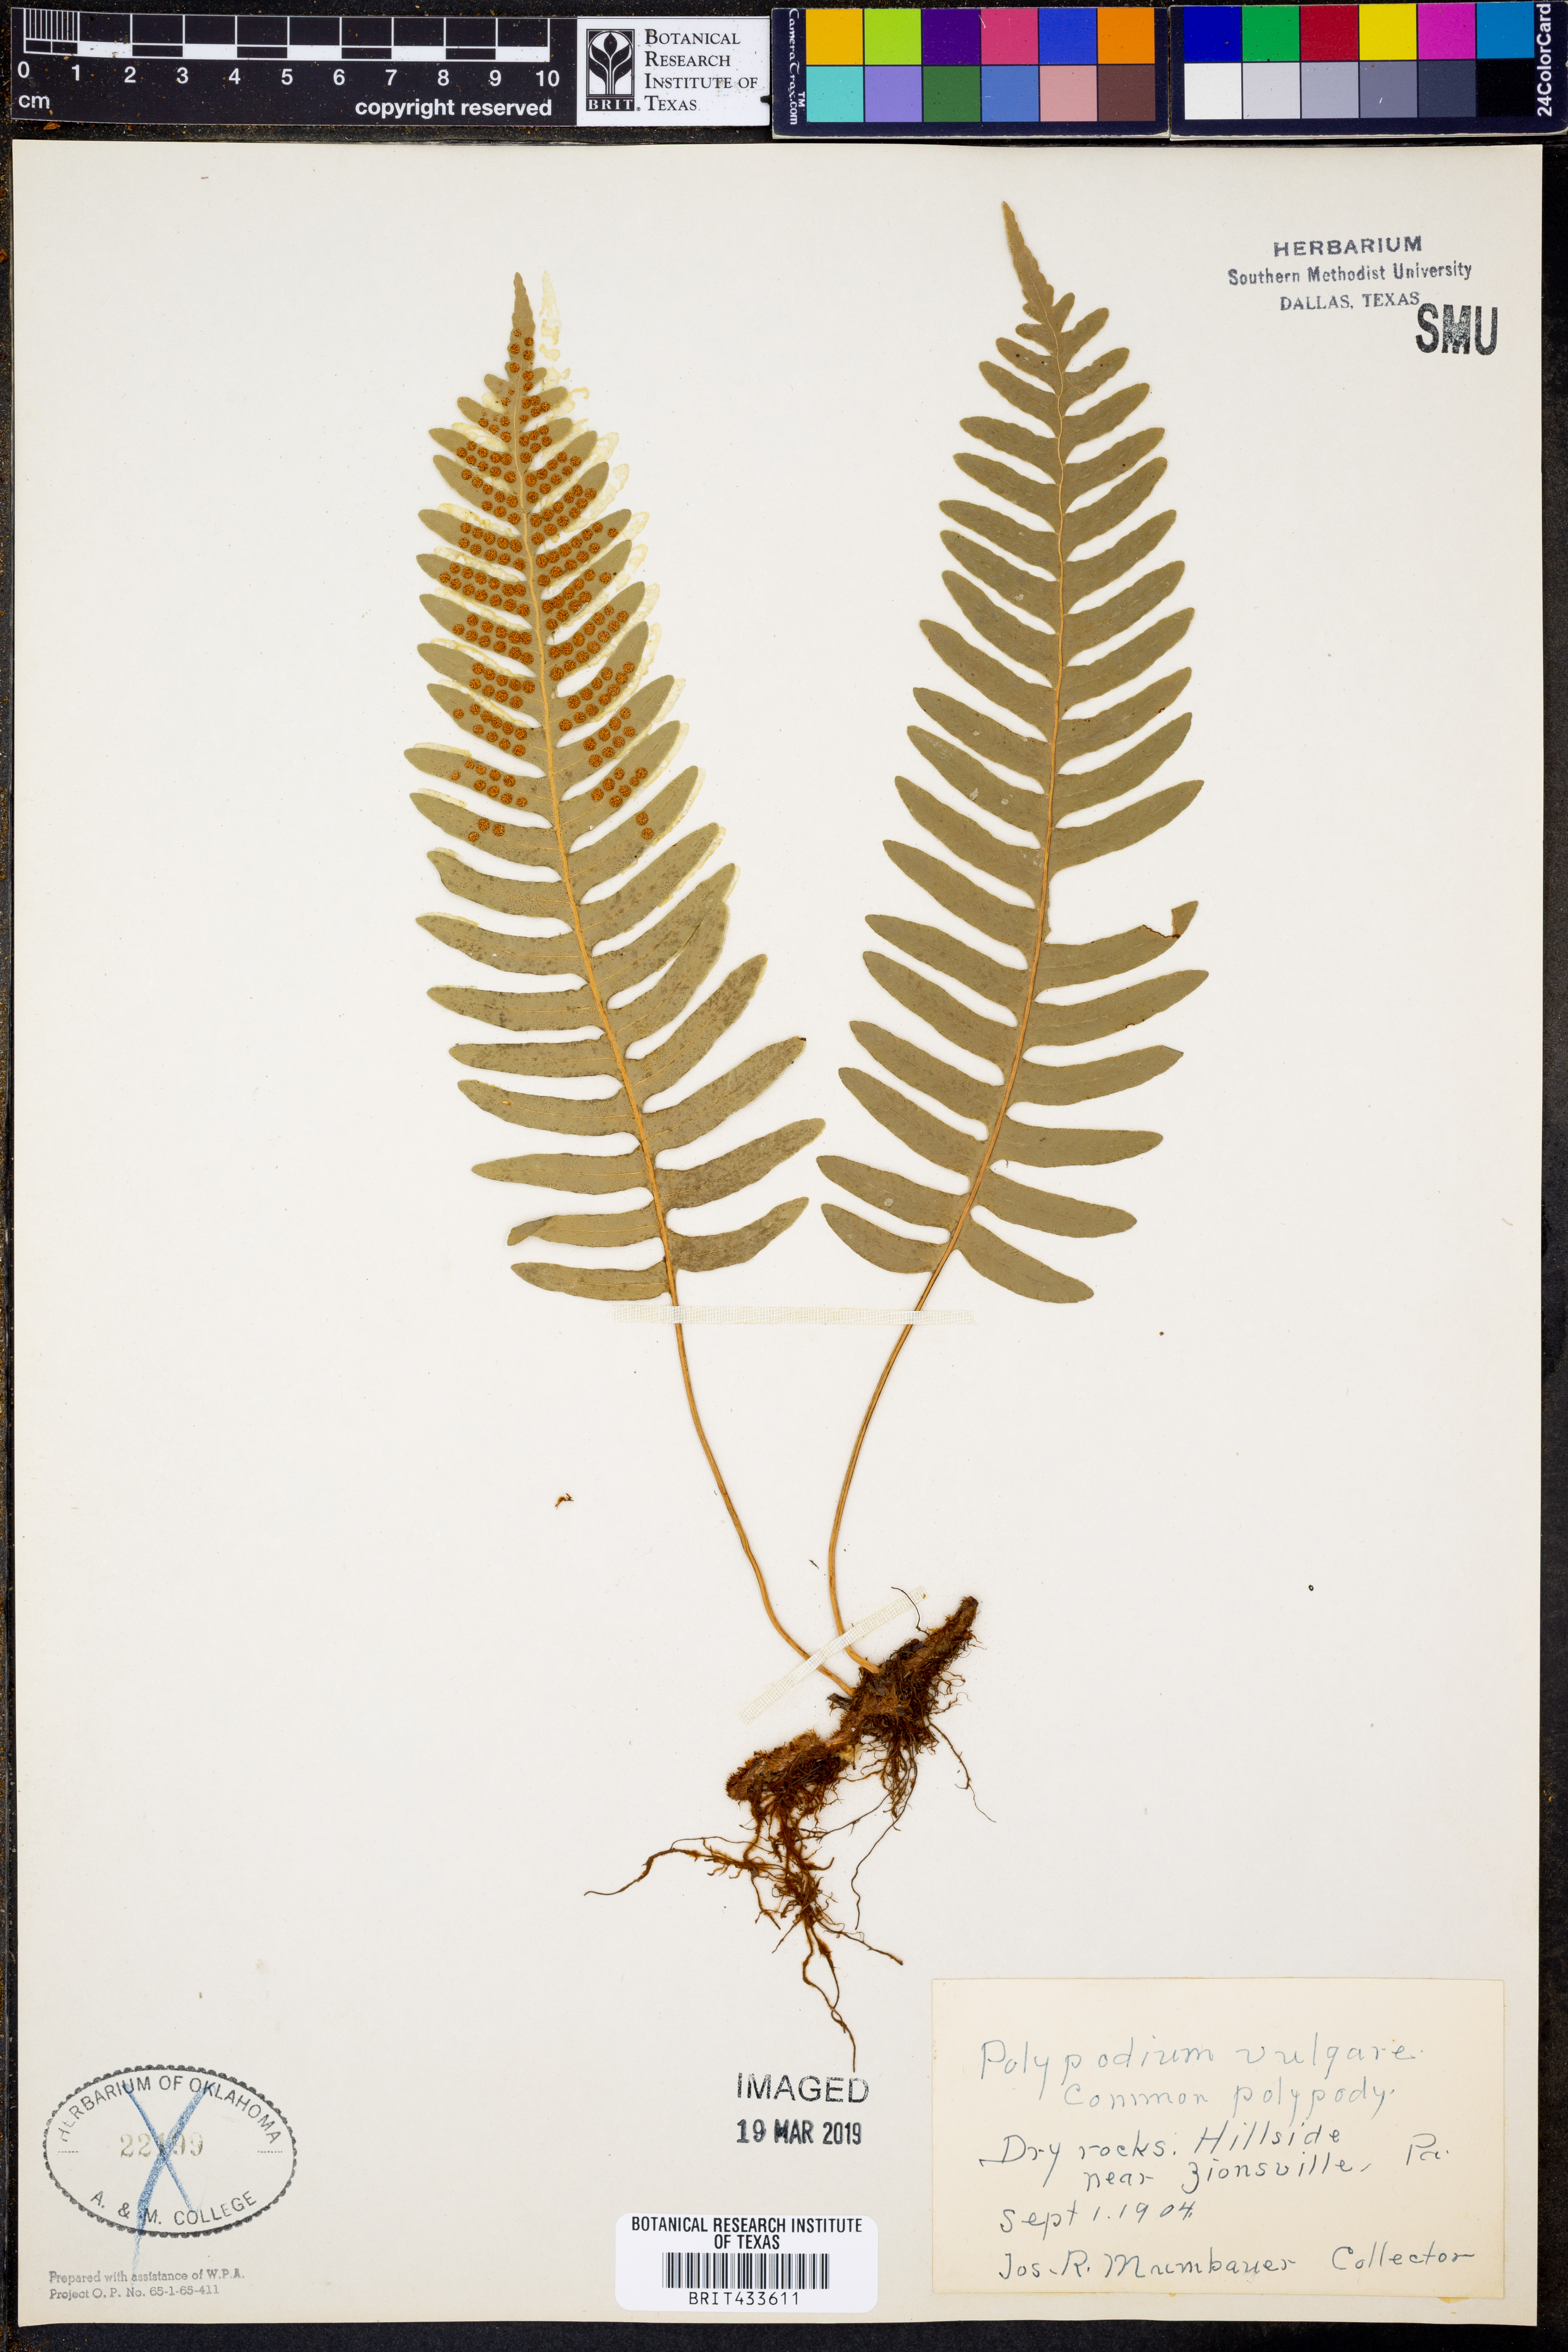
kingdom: Plantae
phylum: Tracheophyta
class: Polypodiopsida
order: Polypodiales
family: Polypodiaceae
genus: Polypodium
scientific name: Polypodium vulgare
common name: Common polypody
